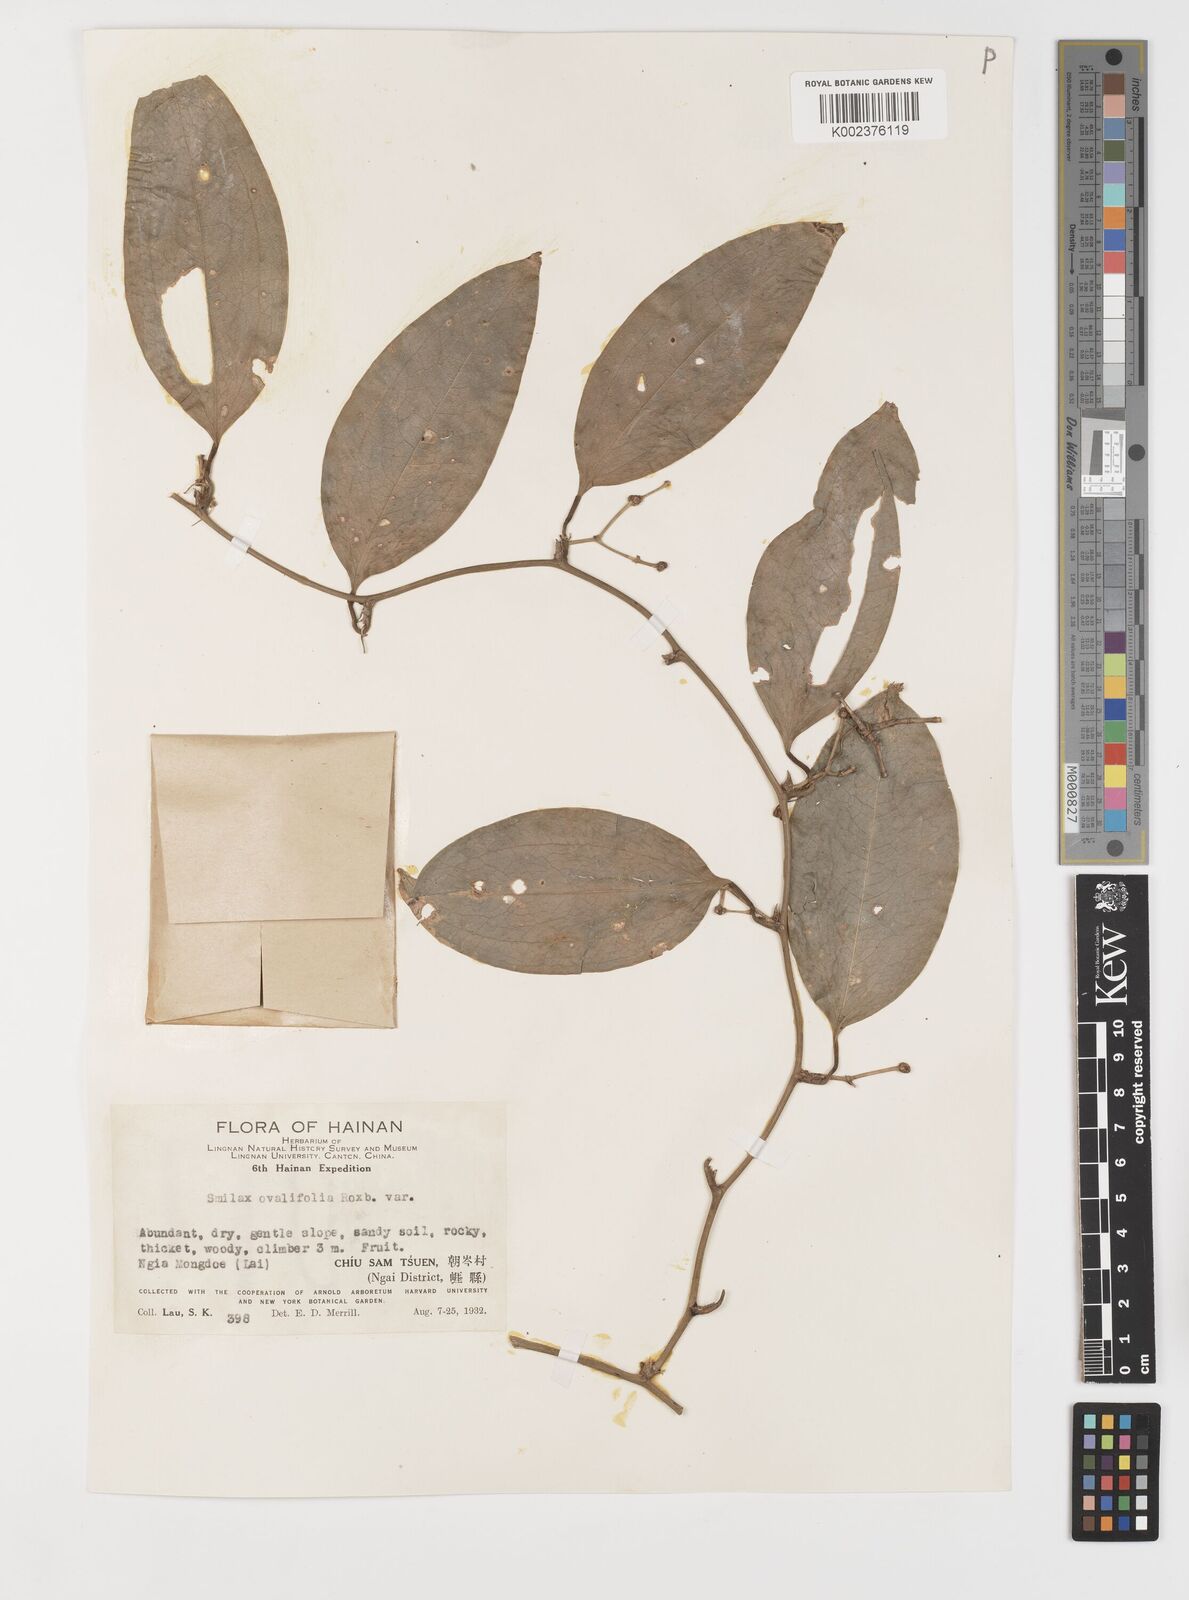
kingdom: Plantae
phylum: Tracheophyta
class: Liliopsida
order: Liliales
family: Smilacaceae
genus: Smilax
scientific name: Smilax ovalifolia
